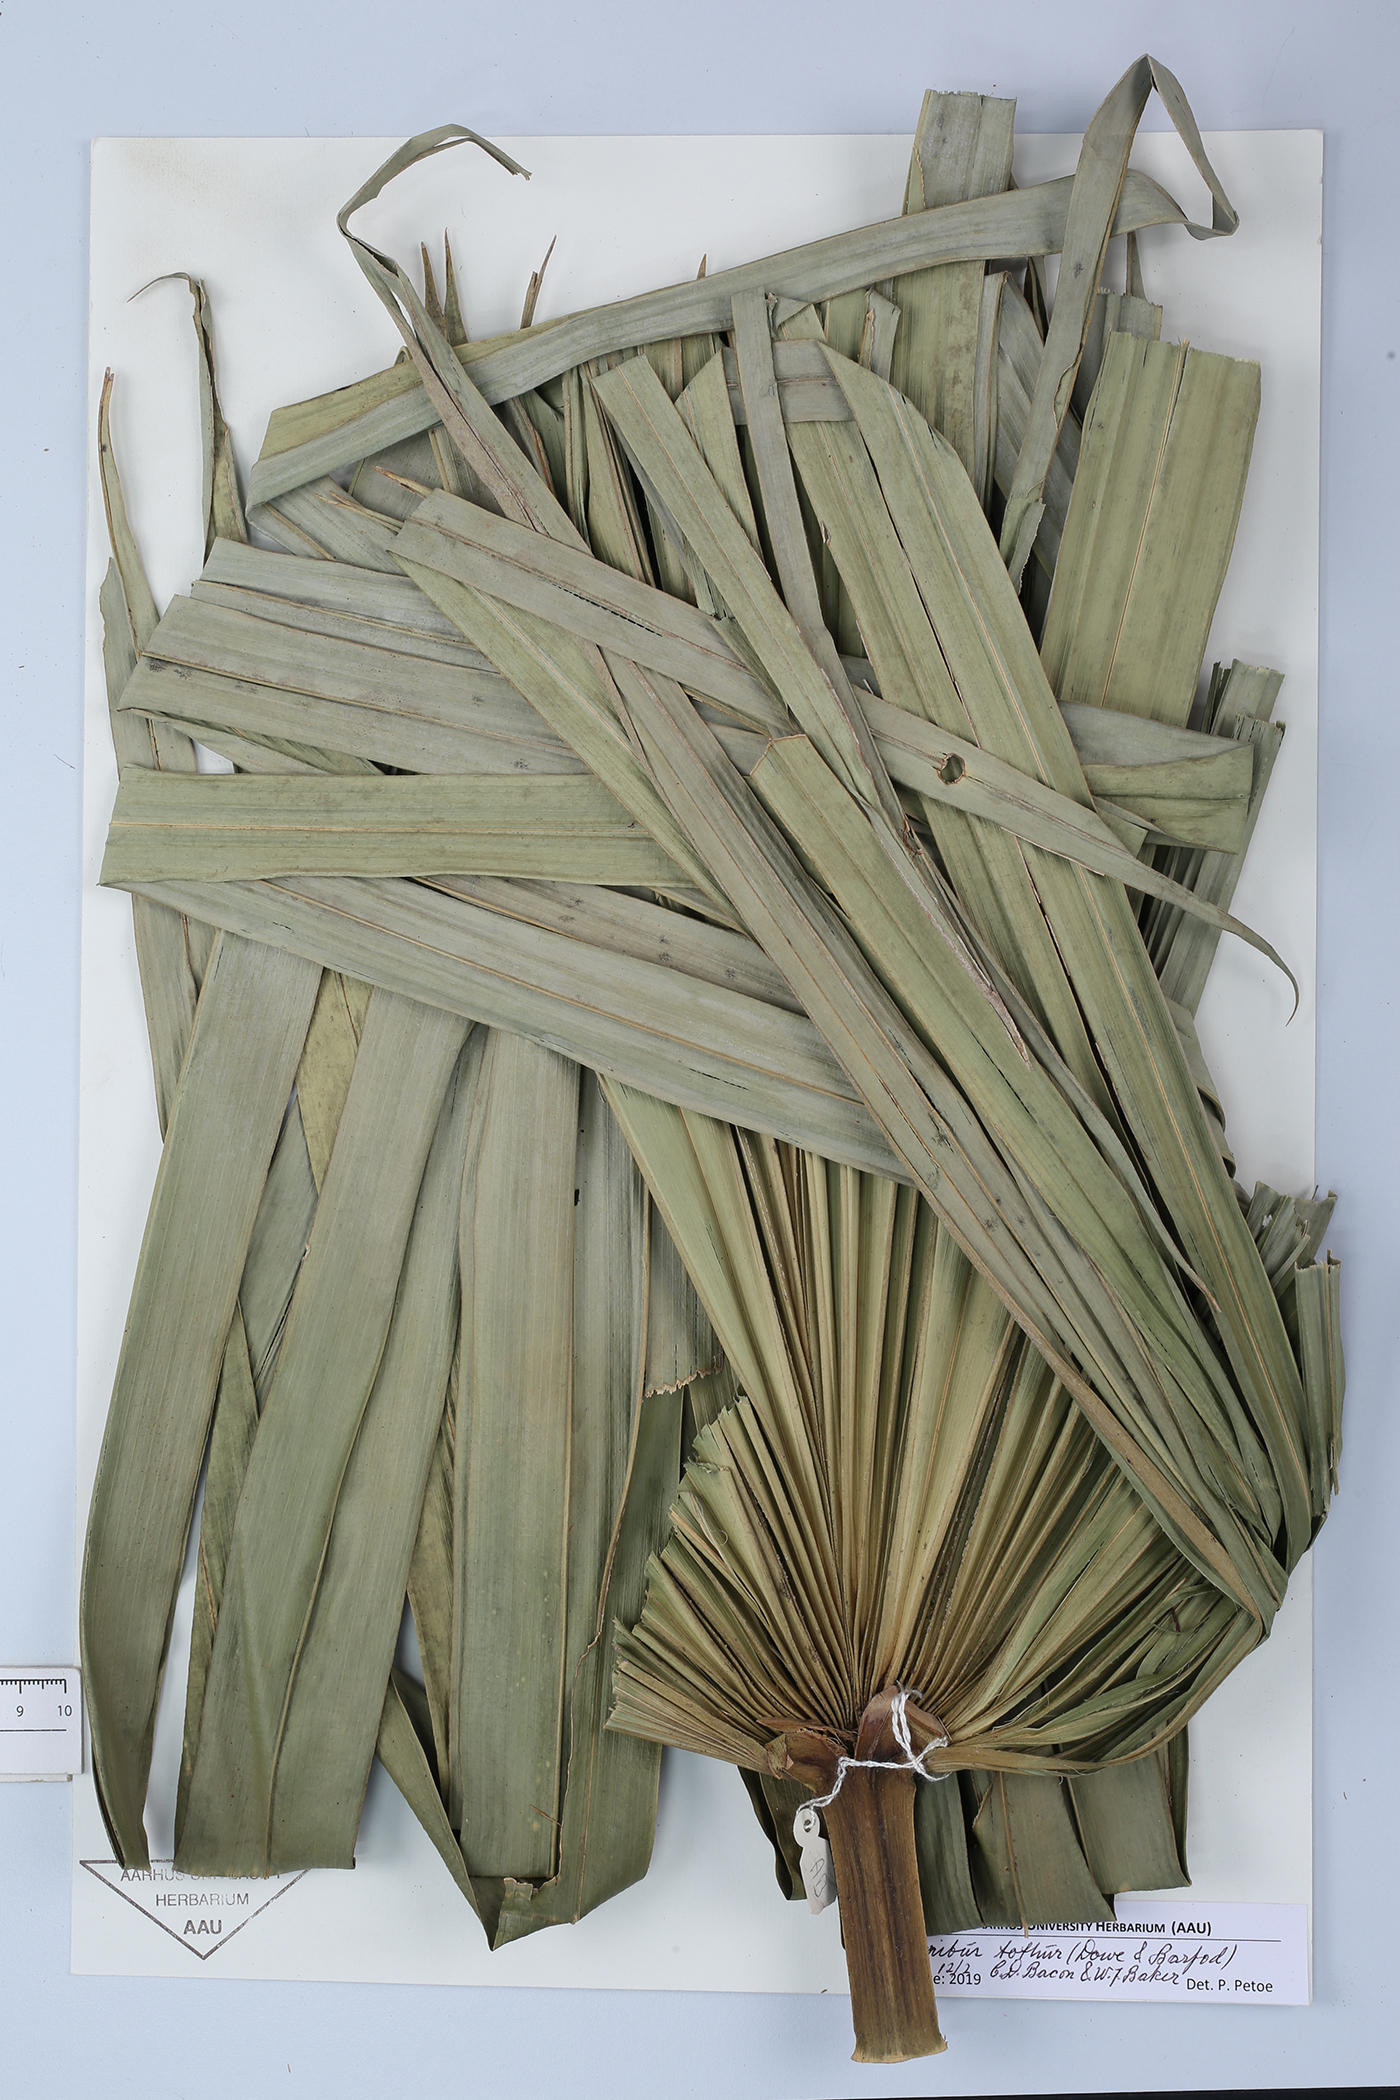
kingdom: Plantae
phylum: Tracheophyta
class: Liliopsida
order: Arecales
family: Arecaceae
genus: Saribus
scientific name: Saribus tothur
